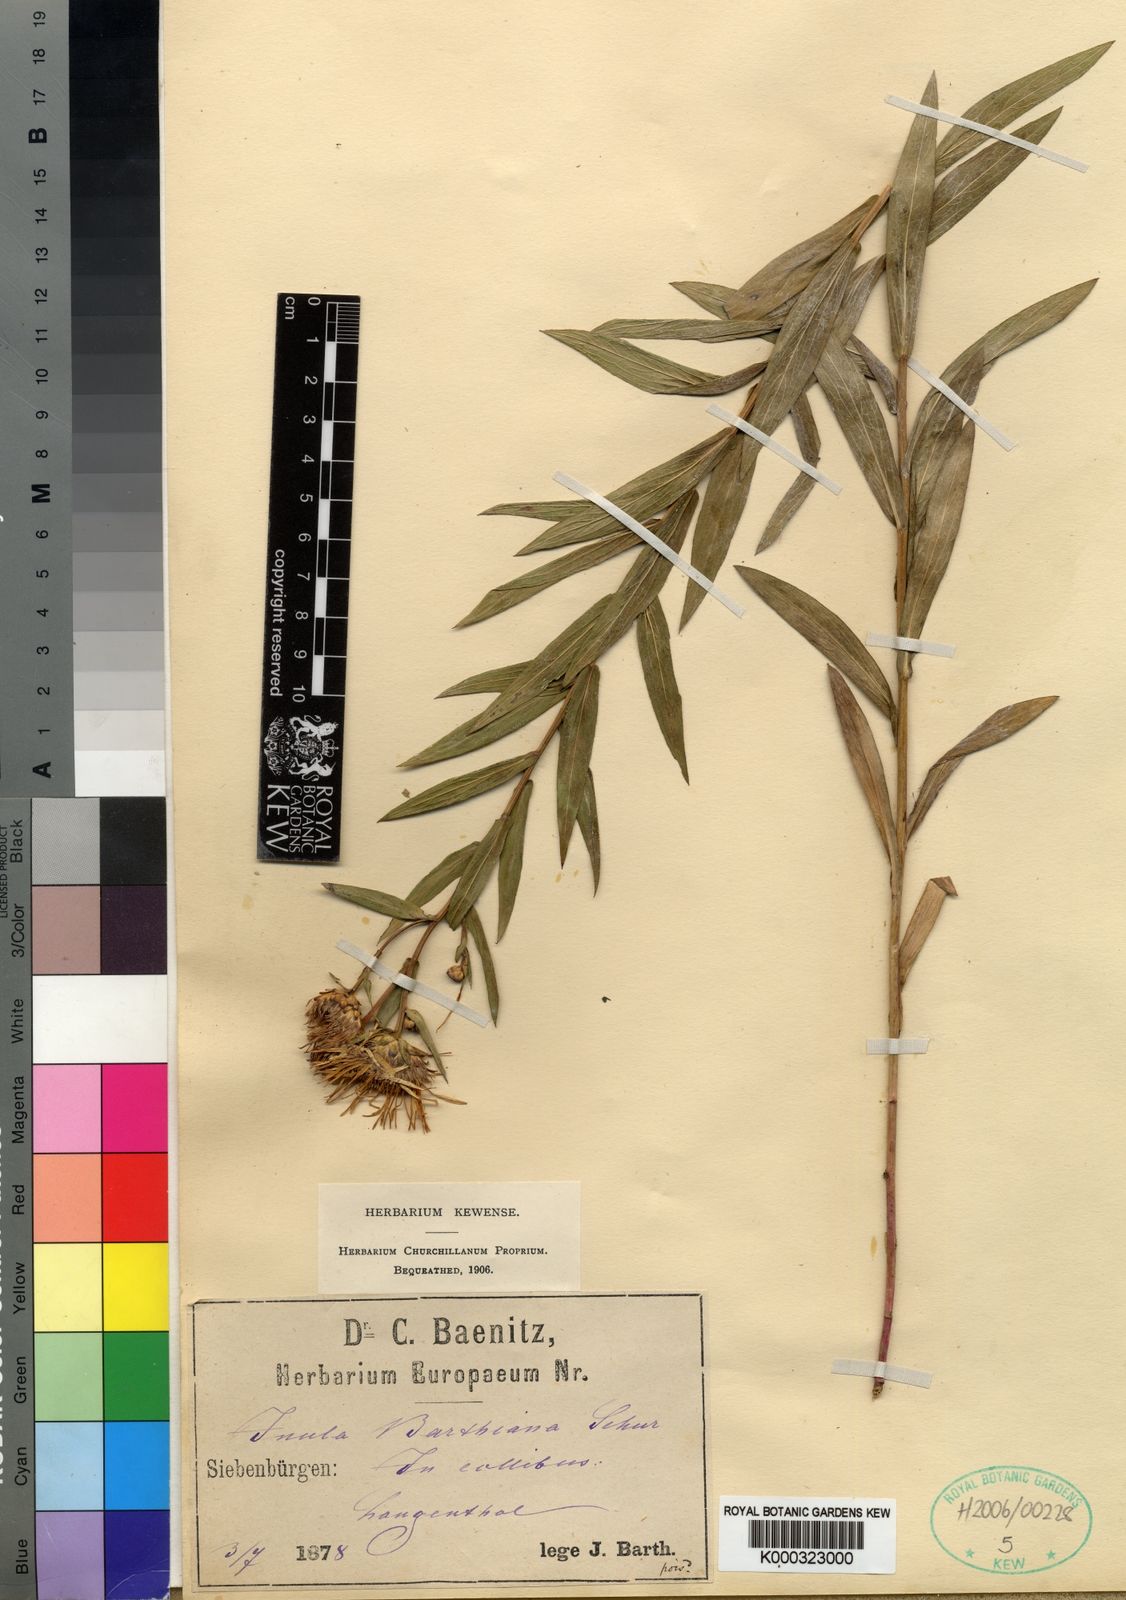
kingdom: Plantae
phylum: Tracheophyta
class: Magnoliopsida
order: Asterales
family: Asteraceae
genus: Pentanema
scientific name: Pentanema strictum
